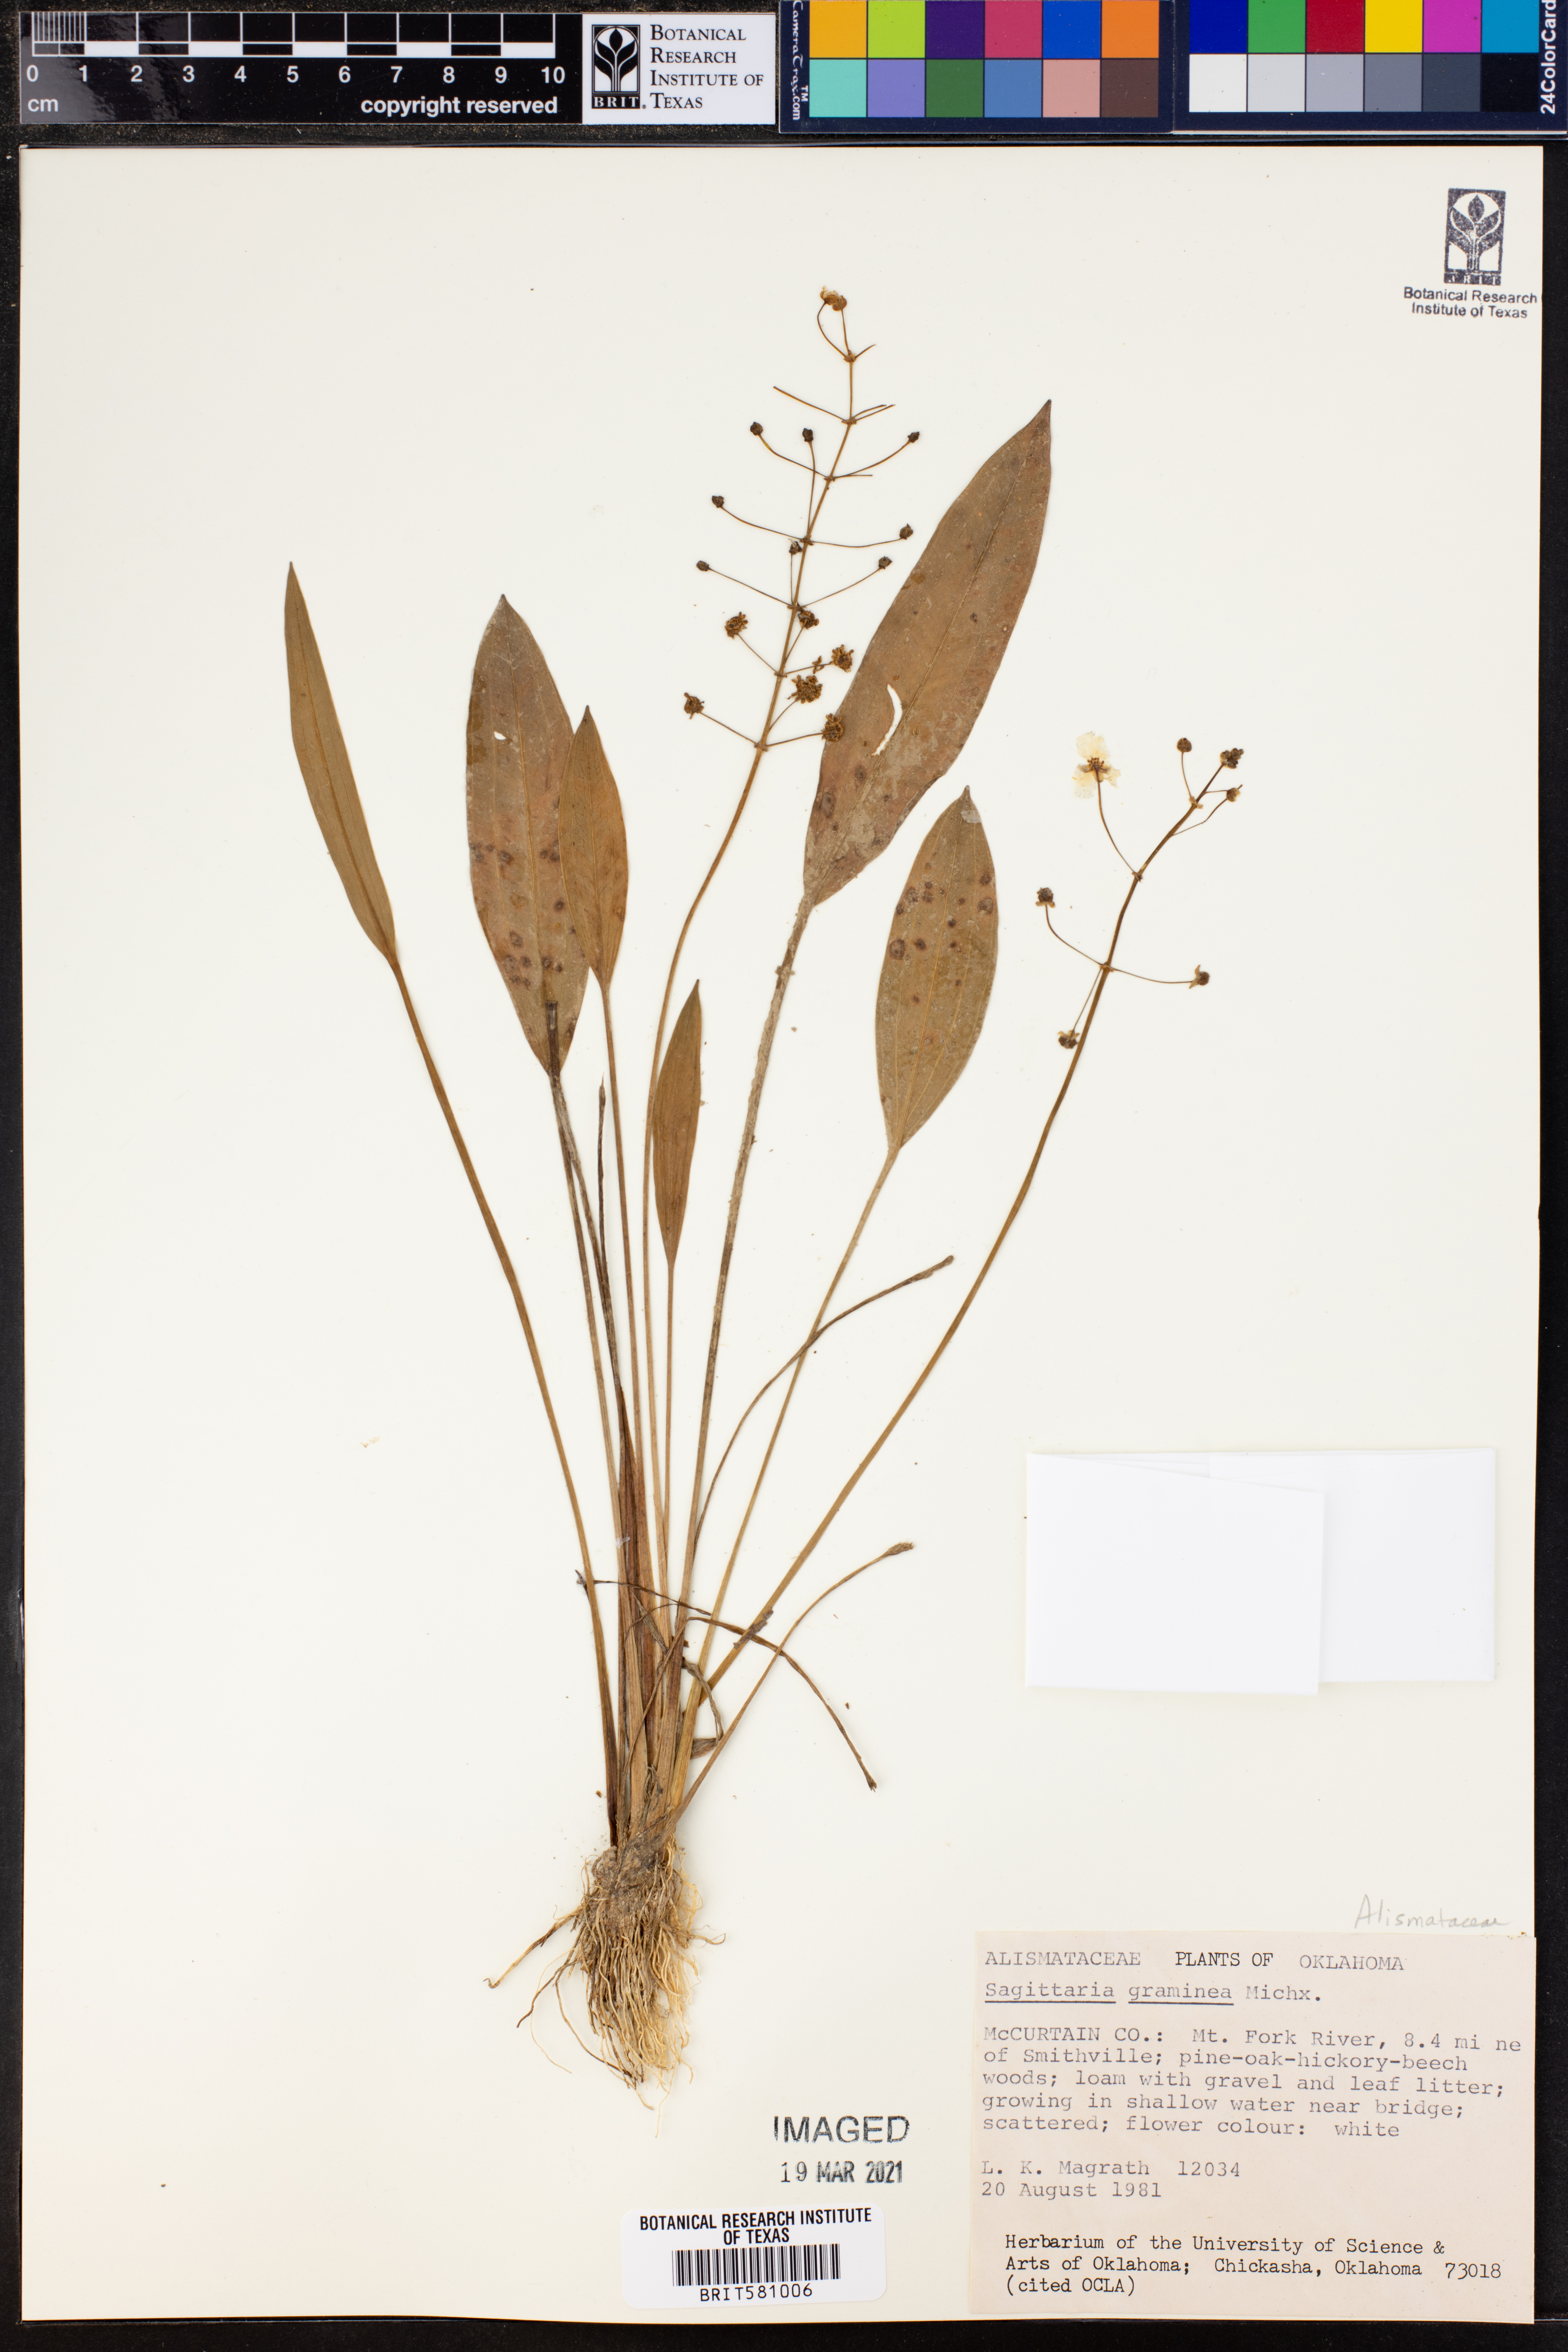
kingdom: Plantae
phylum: Tracheophyta
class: Liliopsida
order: Alismatales
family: Alismataceae
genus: Sagittaria
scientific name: Sagittaria graminea
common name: Grass-leaved arrowhead
